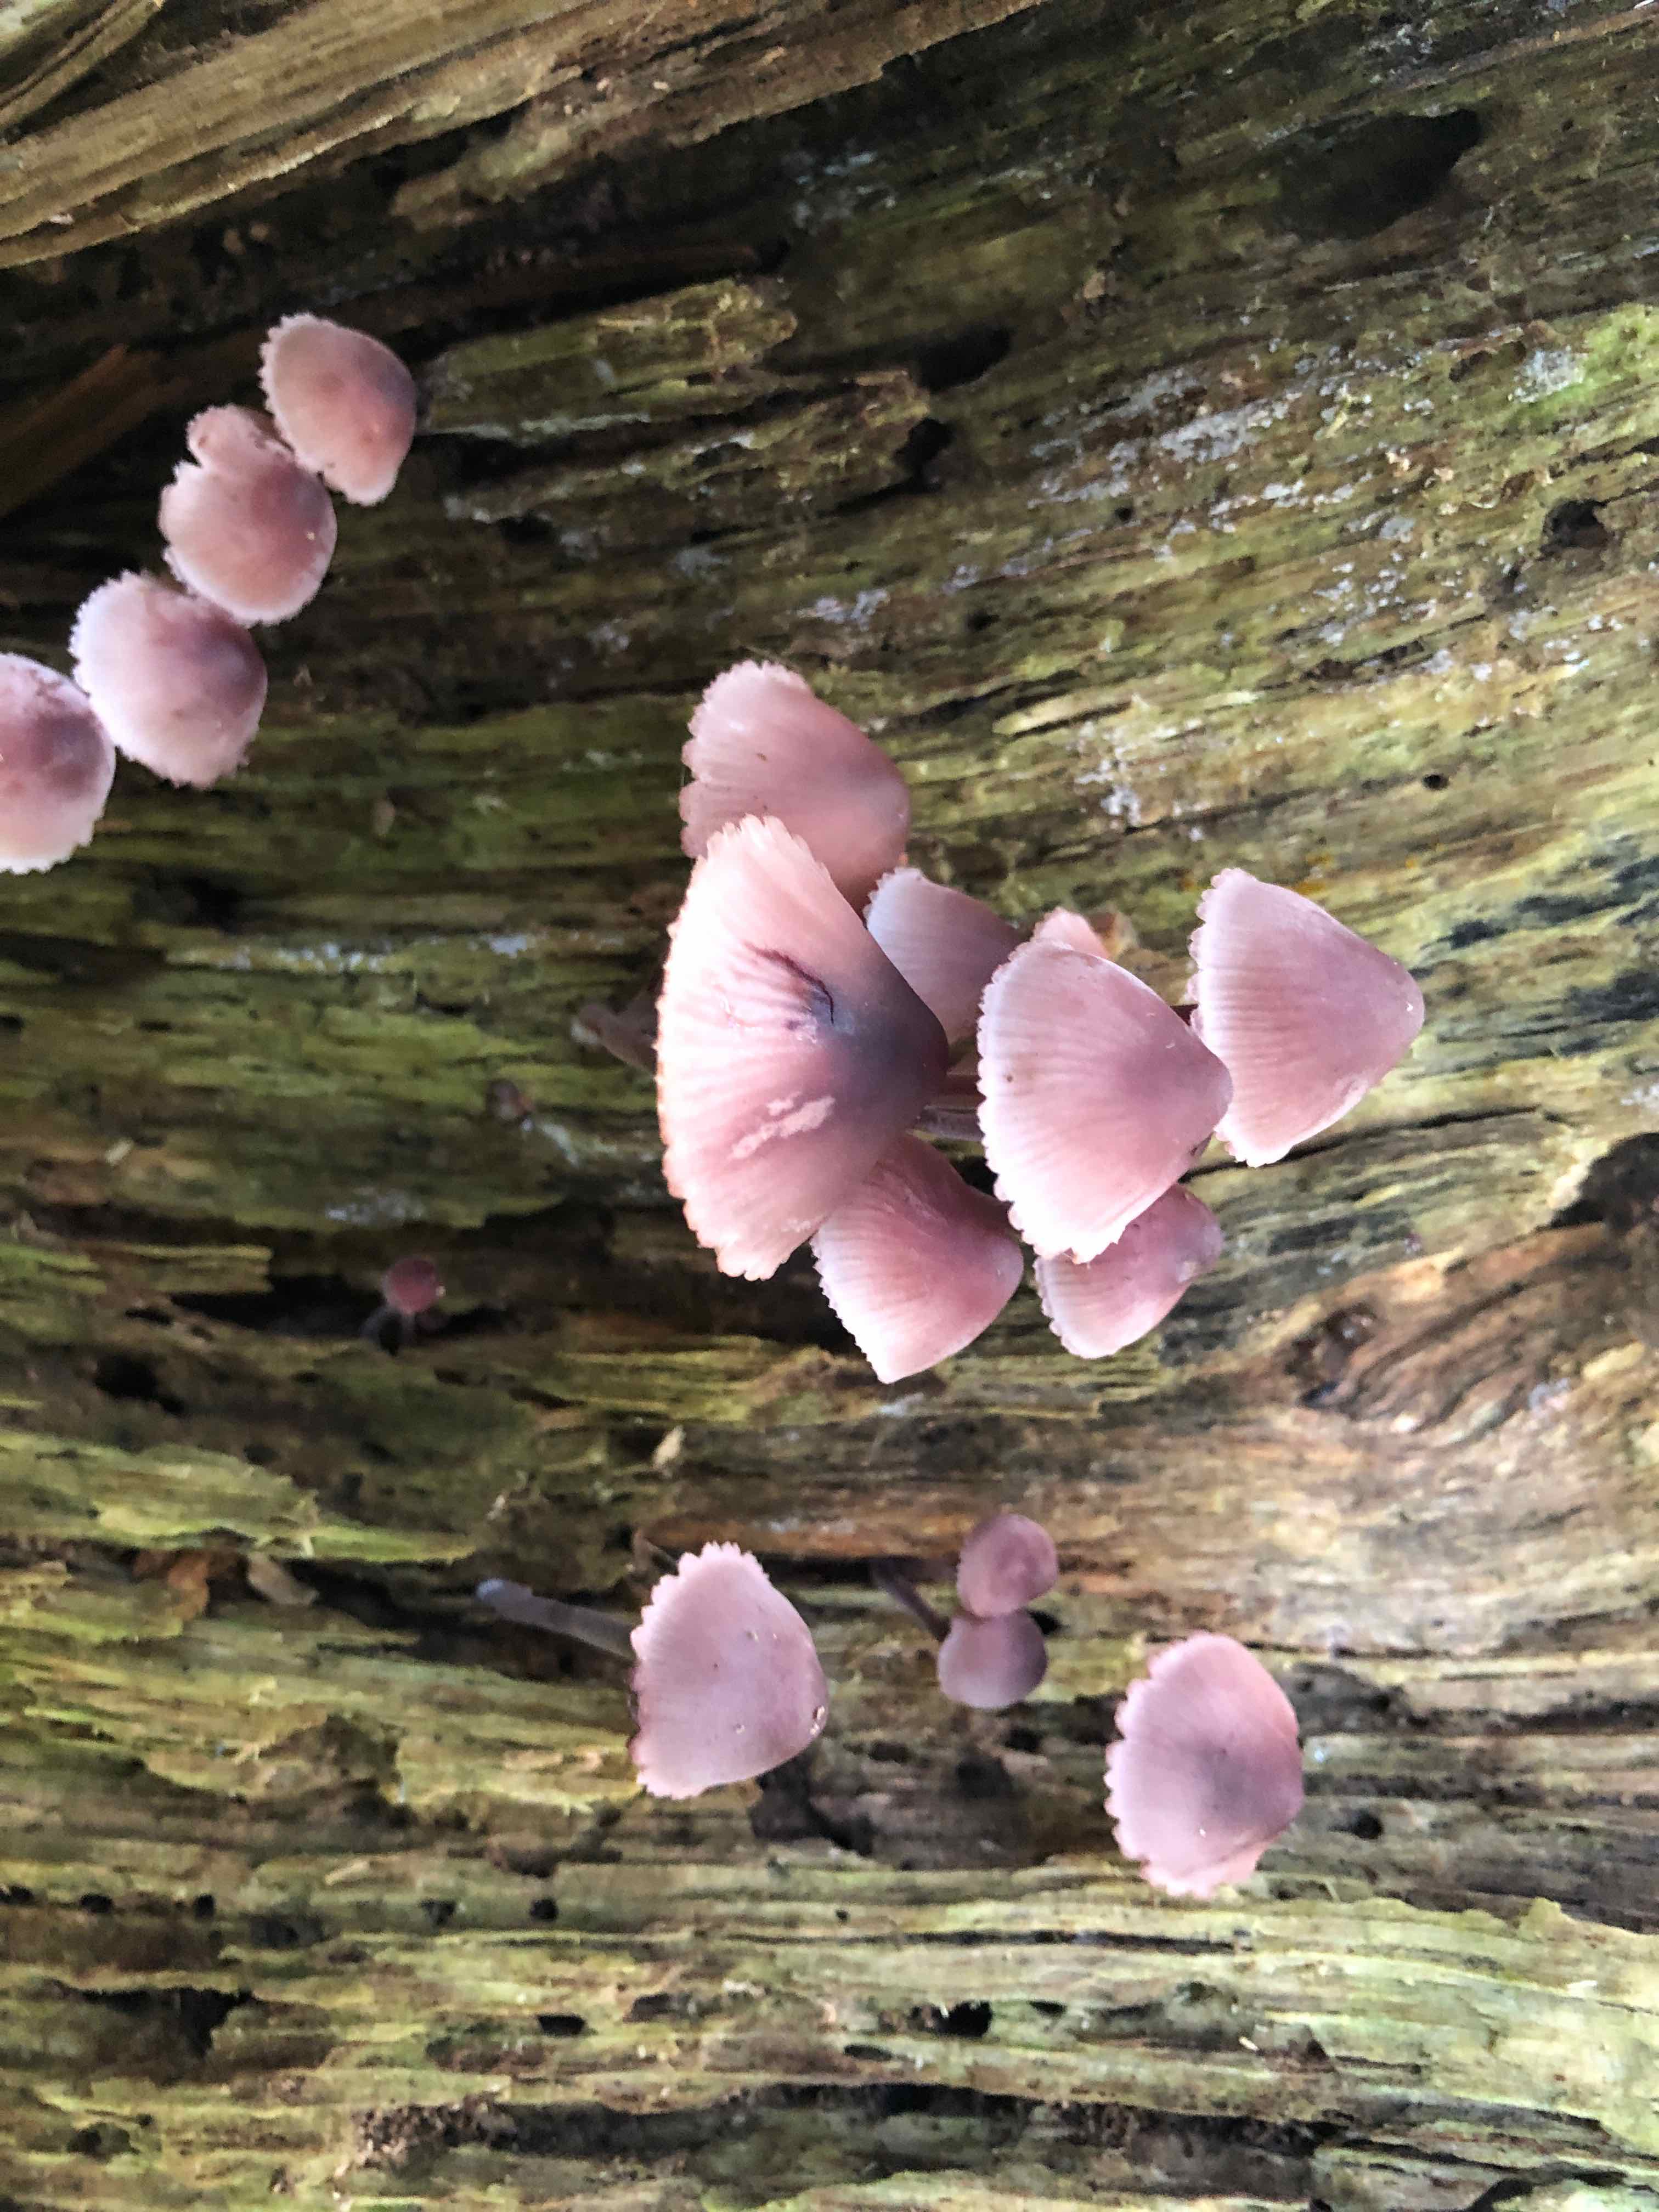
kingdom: Fungi
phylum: Basidiomycota
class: Agaricomycetes
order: Agaricales
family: Mycenaceae
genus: Mycena
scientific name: Mycena haematopus
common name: blødende huesvamp
